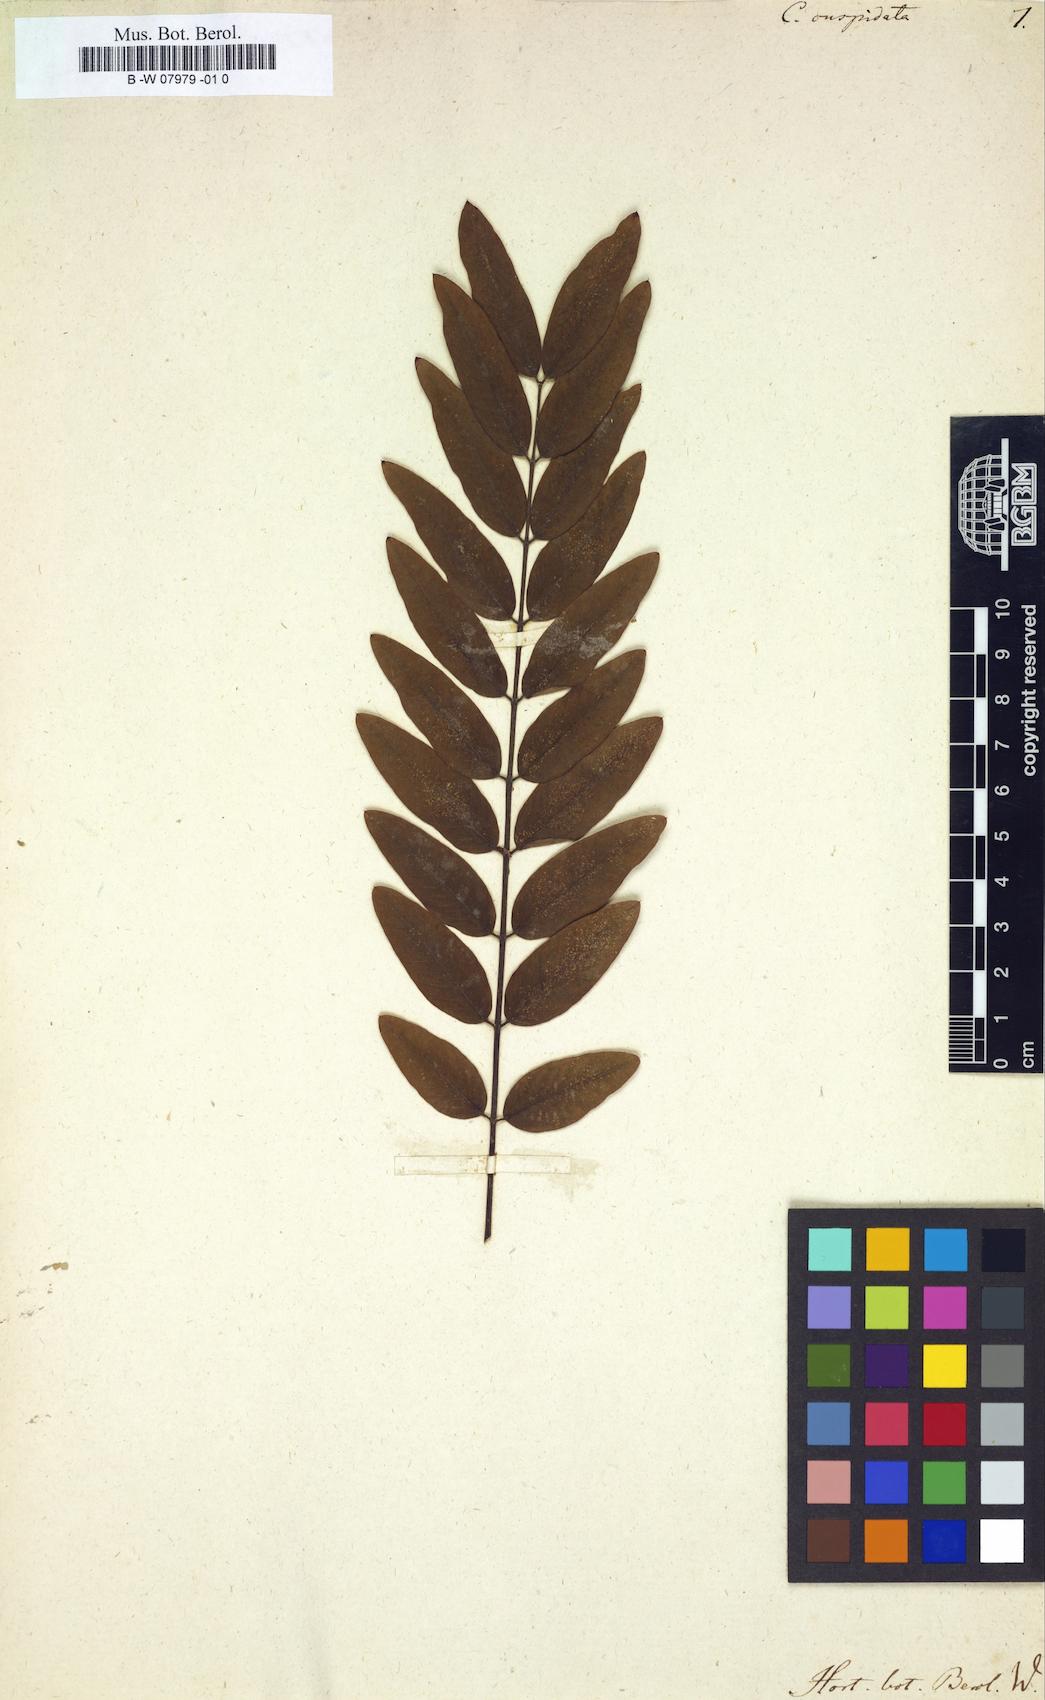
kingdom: Plantae
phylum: Tracheophyta
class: Magnoliopsida
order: Fabales
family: Fabaceae
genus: Senna
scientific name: Senna pistaciifolia
